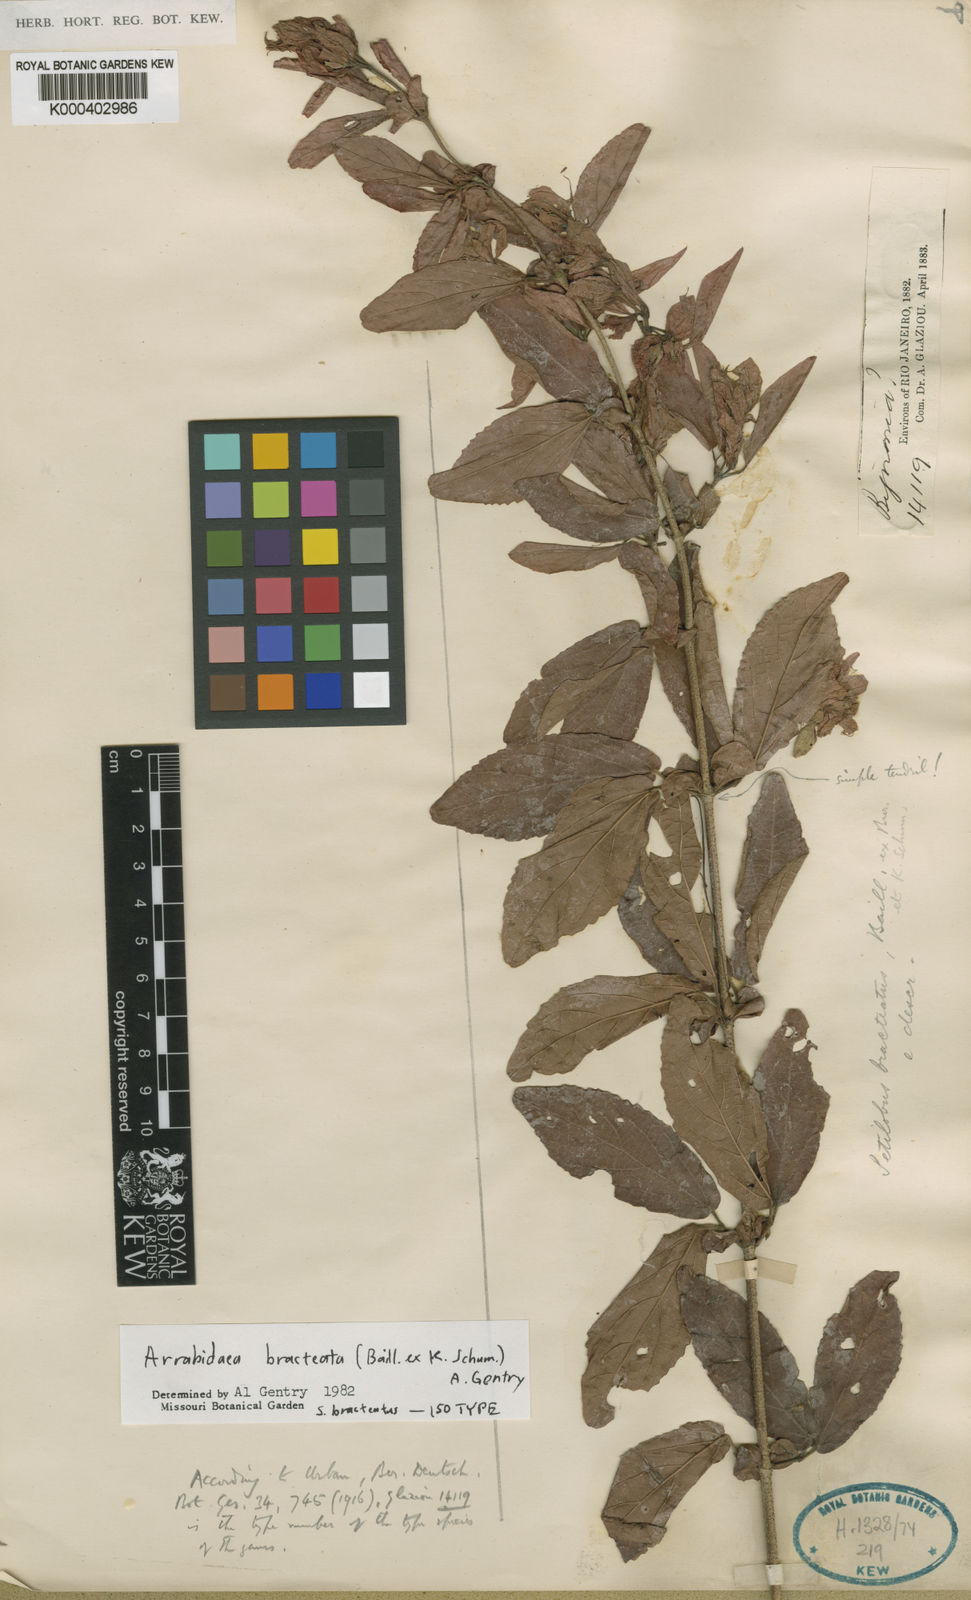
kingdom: Plantae
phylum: Tracheophyta
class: Magnoliopsida
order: Lamiales
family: Bignoniaceae
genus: Cuspidaria
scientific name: Cuspidaria bracteata
